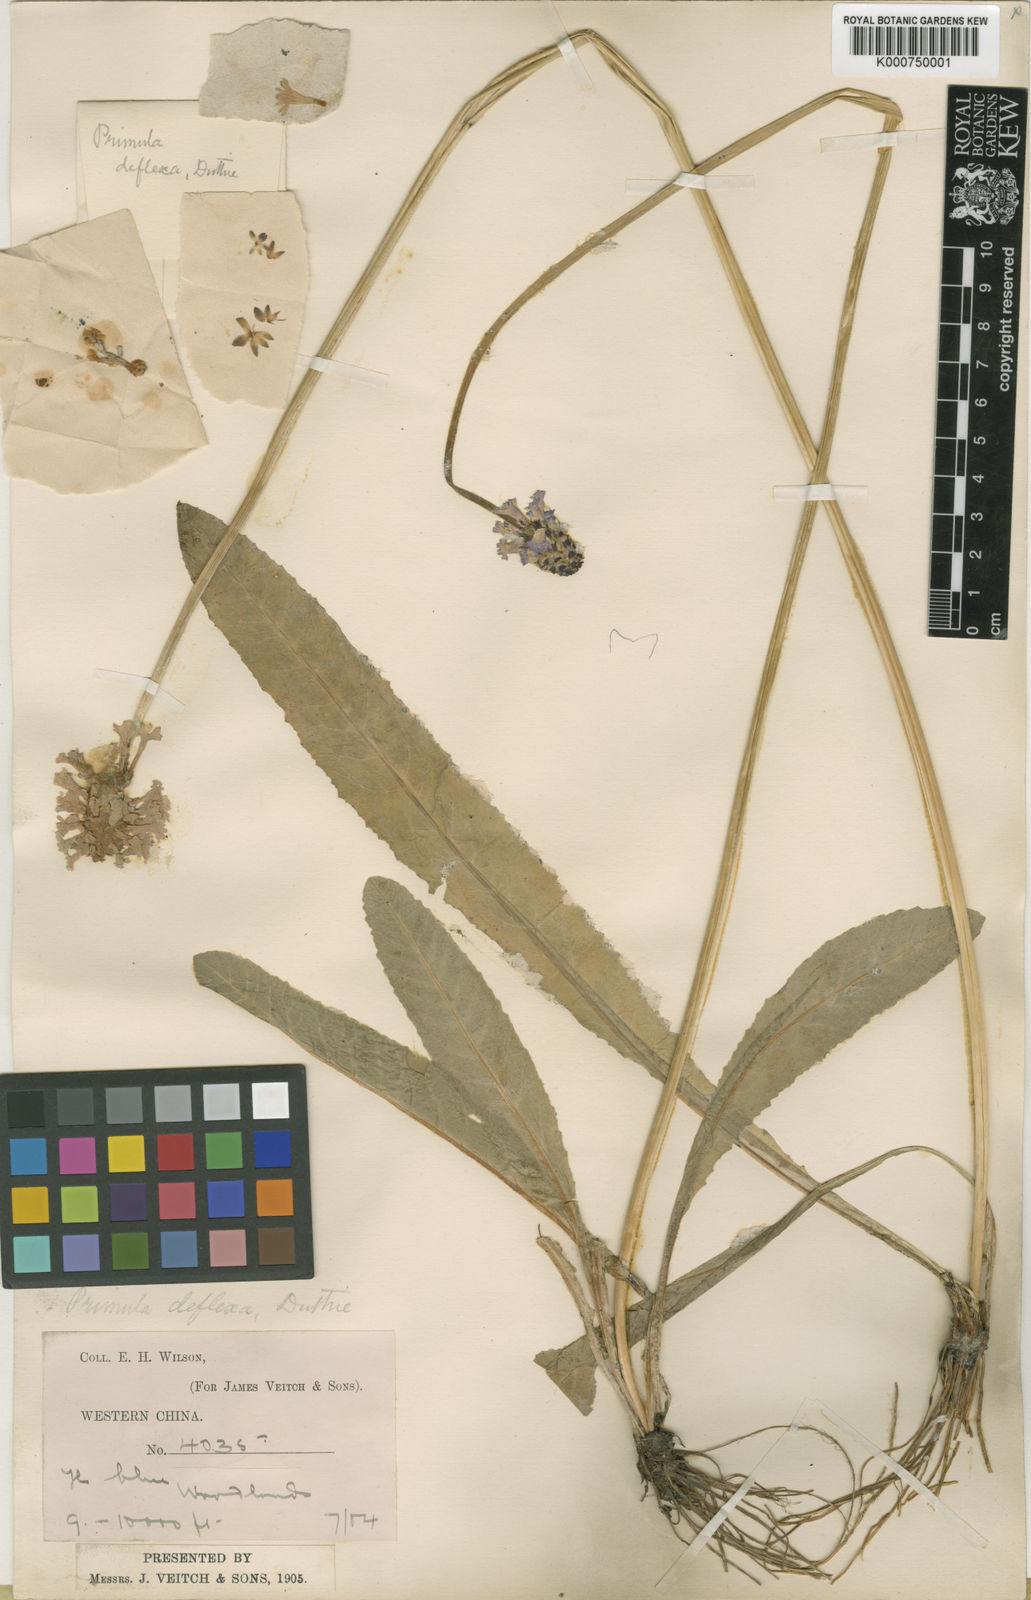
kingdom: Plantae
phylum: Tracheophyta
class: Magnoliopsida
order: Ericales
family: Primulaceae
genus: Primula
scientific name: Primula gracilenta
